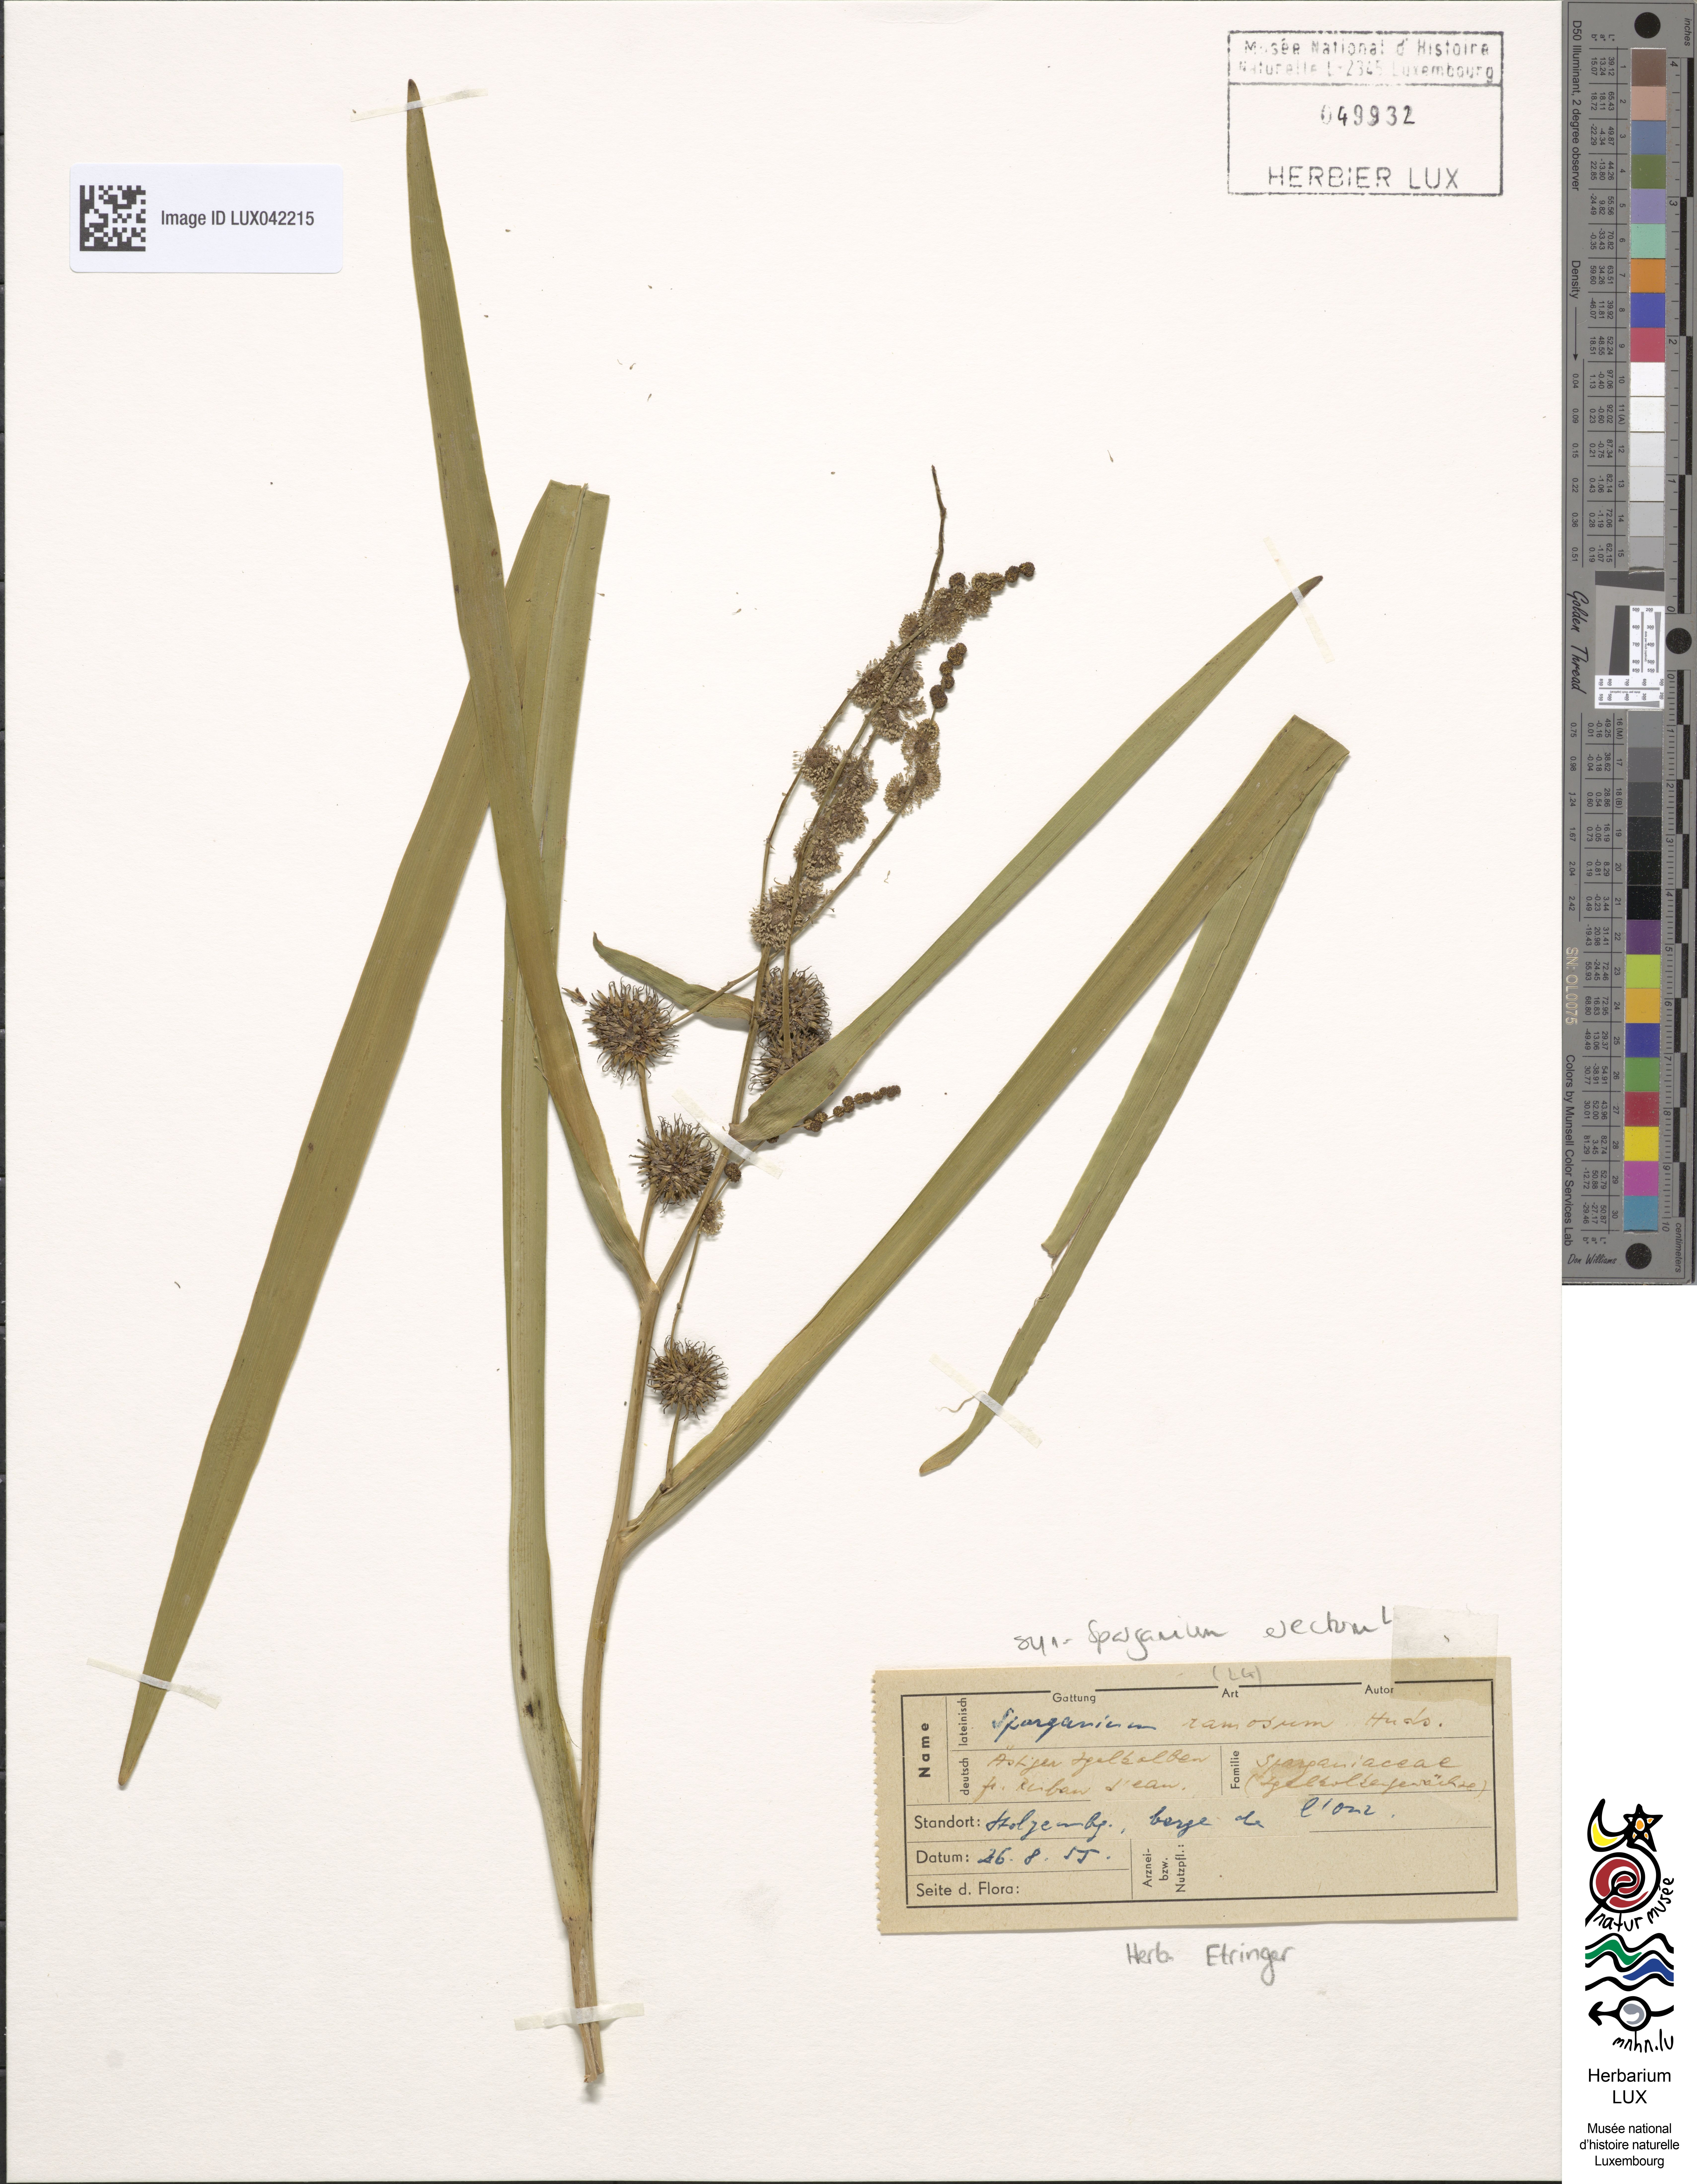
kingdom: Plantae
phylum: Tracheophyta
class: Liliopsida
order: Poales
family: Typhaceae
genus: Sparganium
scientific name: Sparganium erectum
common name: Branched bur-reed
